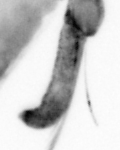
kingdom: Animalia
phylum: Annelida
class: Polychaeta
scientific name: Polychaeta
